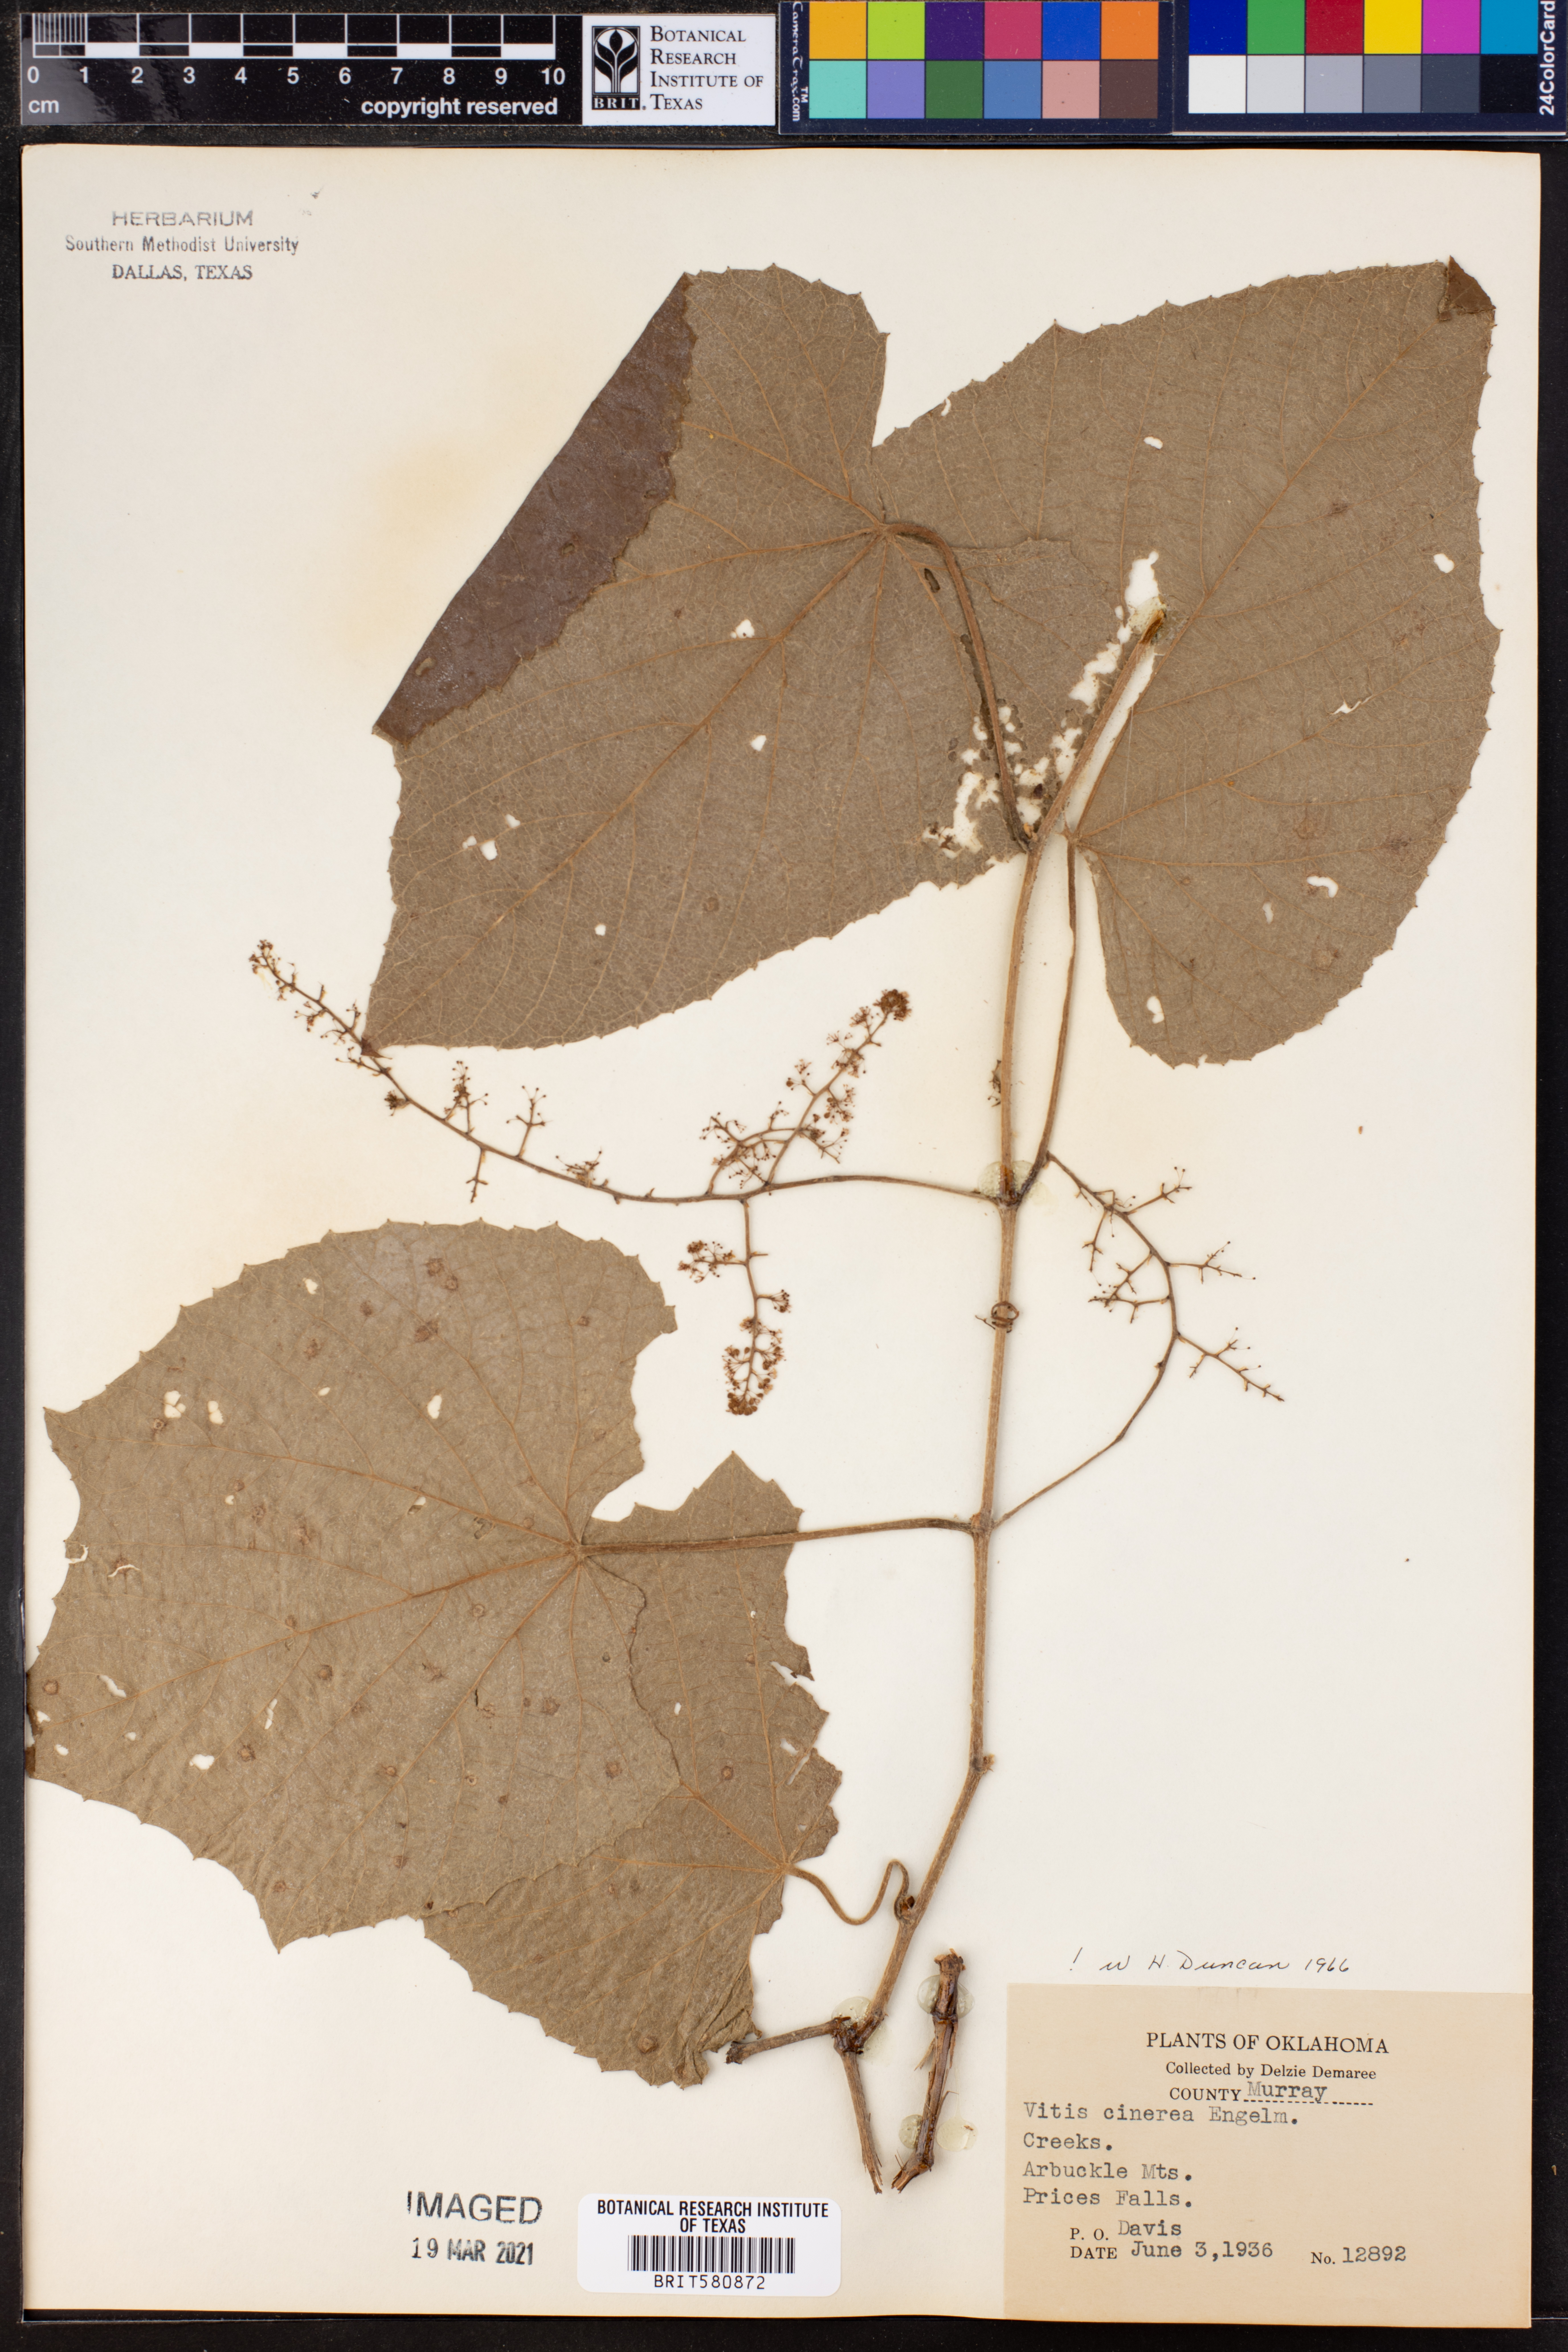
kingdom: Plantae
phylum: Tracheophyta
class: Magnoliopsida
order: Vitales
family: Vitaceae
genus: Vitis
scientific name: Vitis cinerea
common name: Ashy grape
